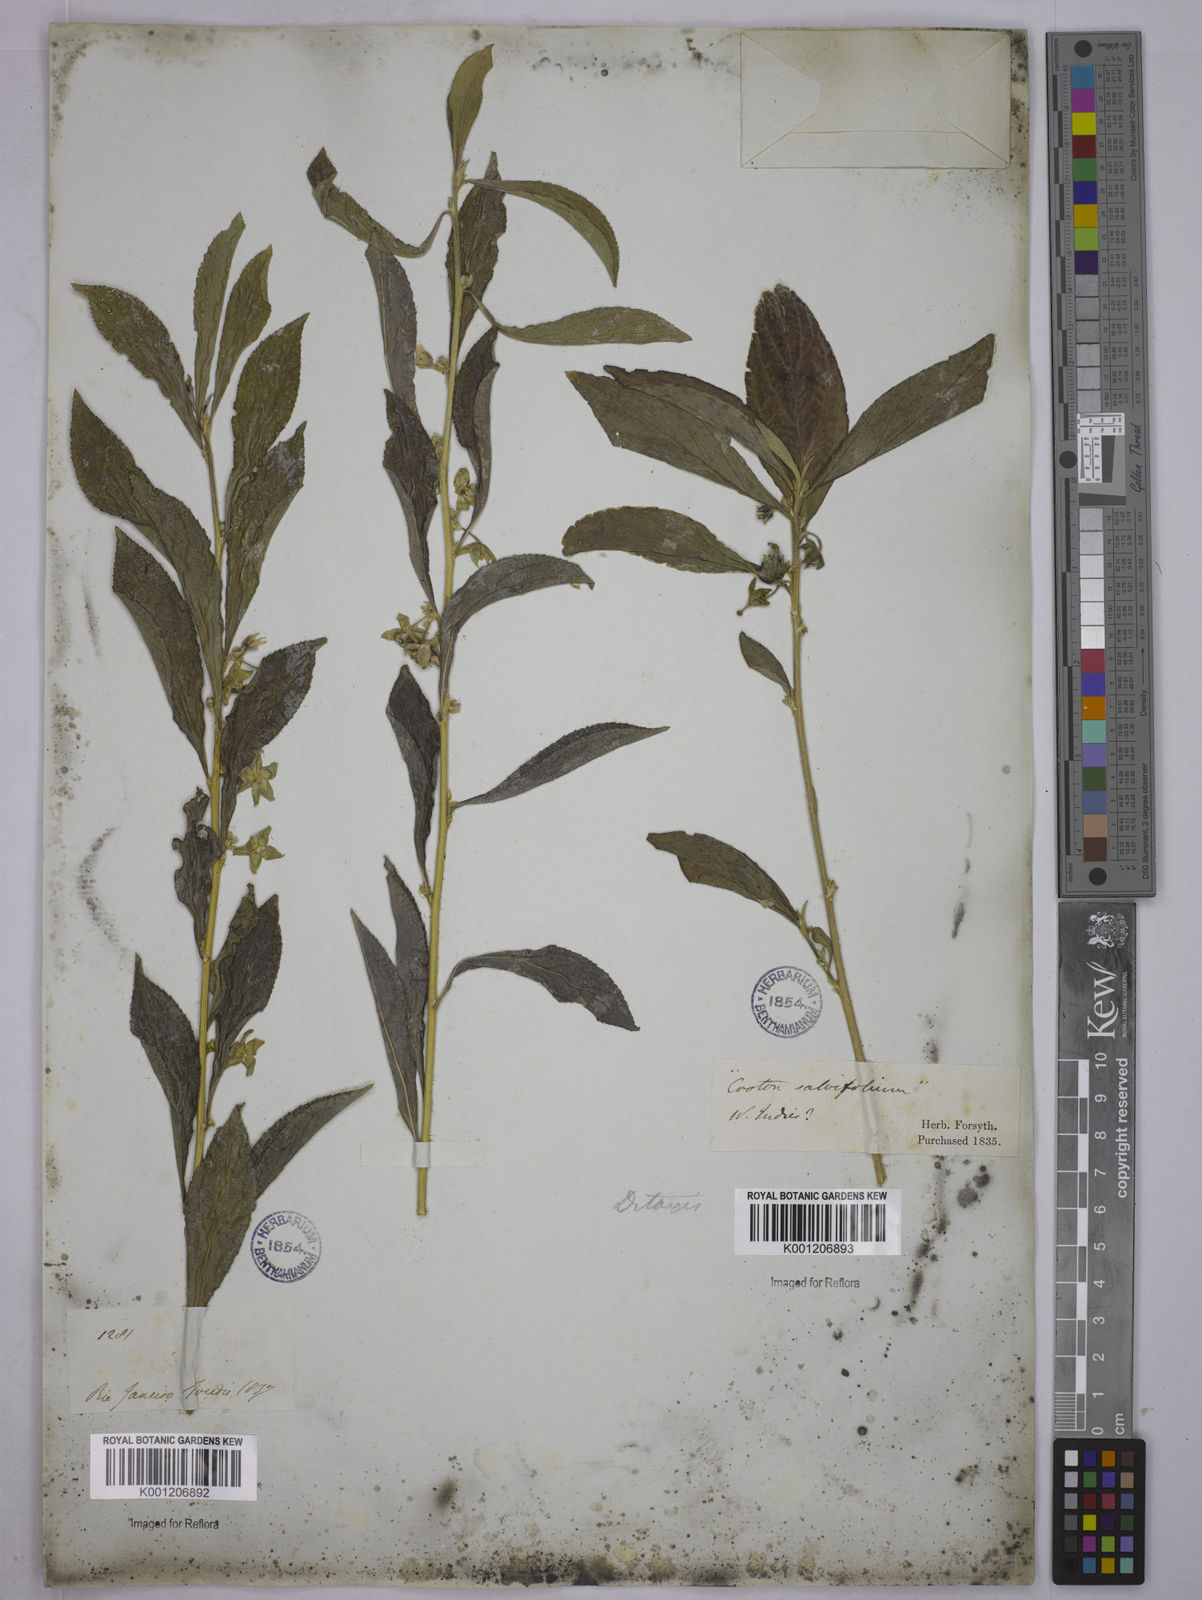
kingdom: Plantae
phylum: Tracheophyta
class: Magnoliopsida
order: Malpighiales
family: Euphorbiaceae
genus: Ditaxis
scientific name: Ditaxis
